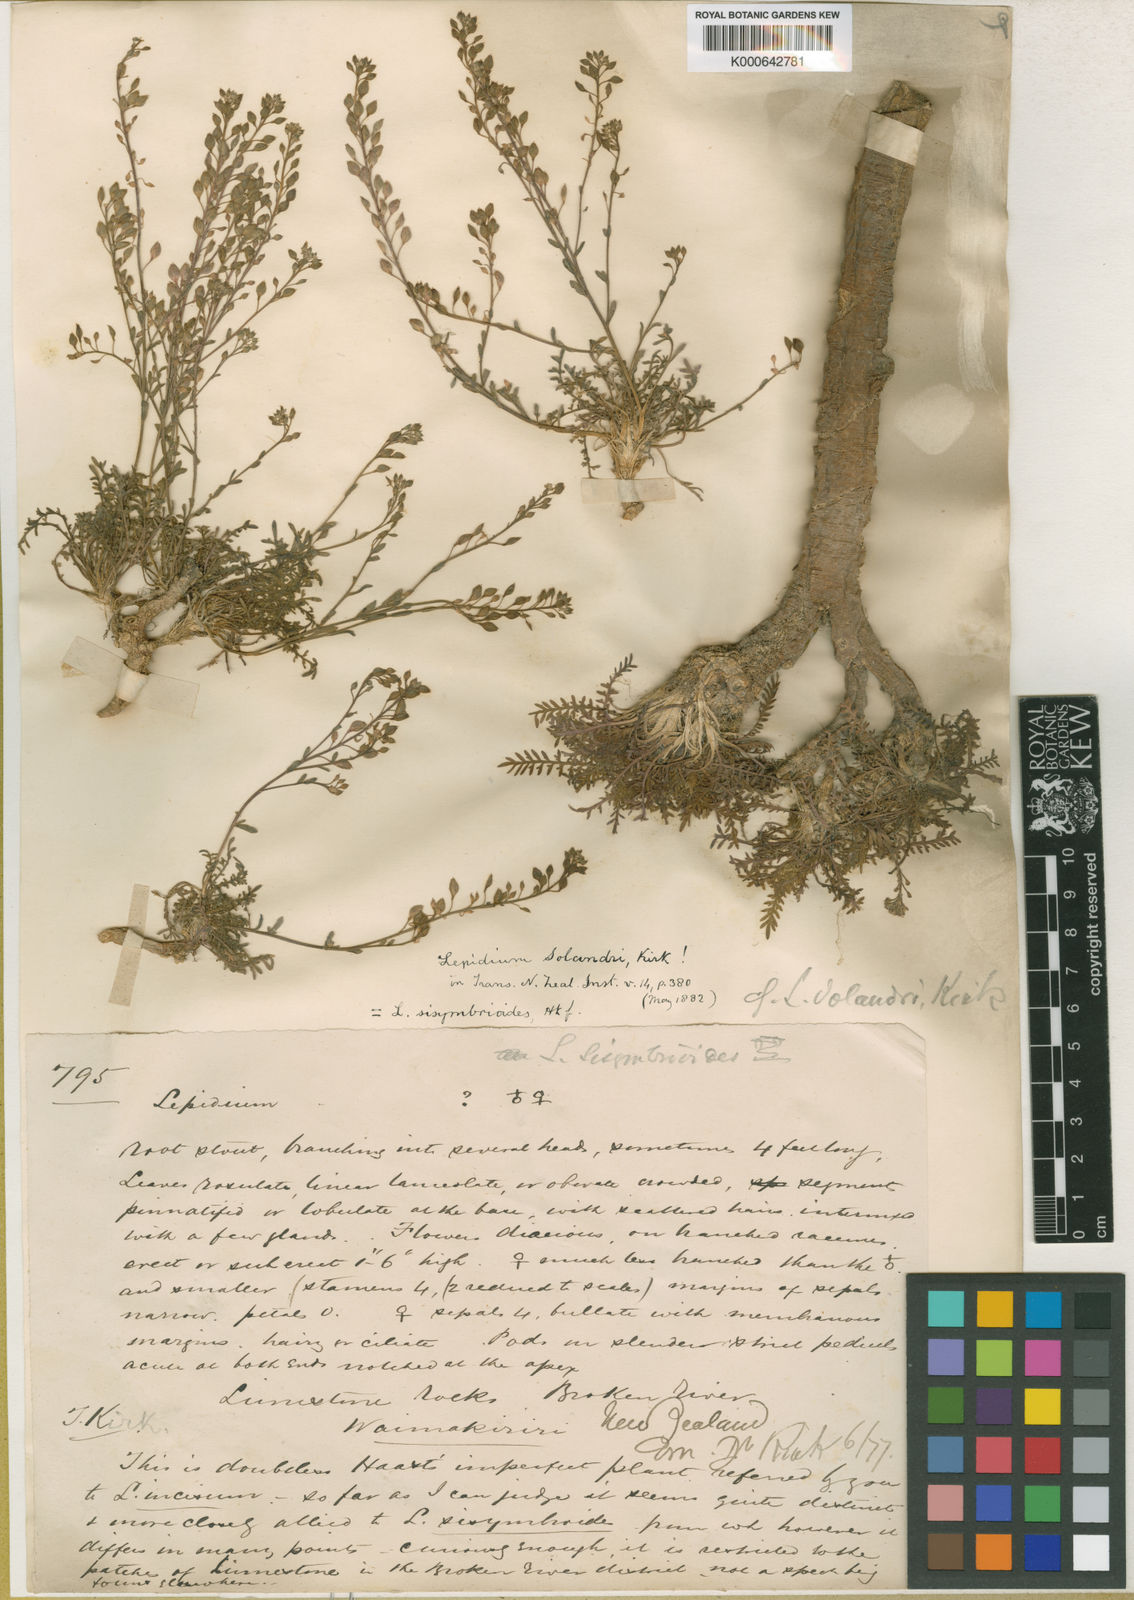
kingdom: Plantae
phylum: Tracheophyta
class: Magnoliopsida
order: Brassicales
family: Brassicaceae
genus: Lepidium
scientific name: Lepidium sisymbrioides
